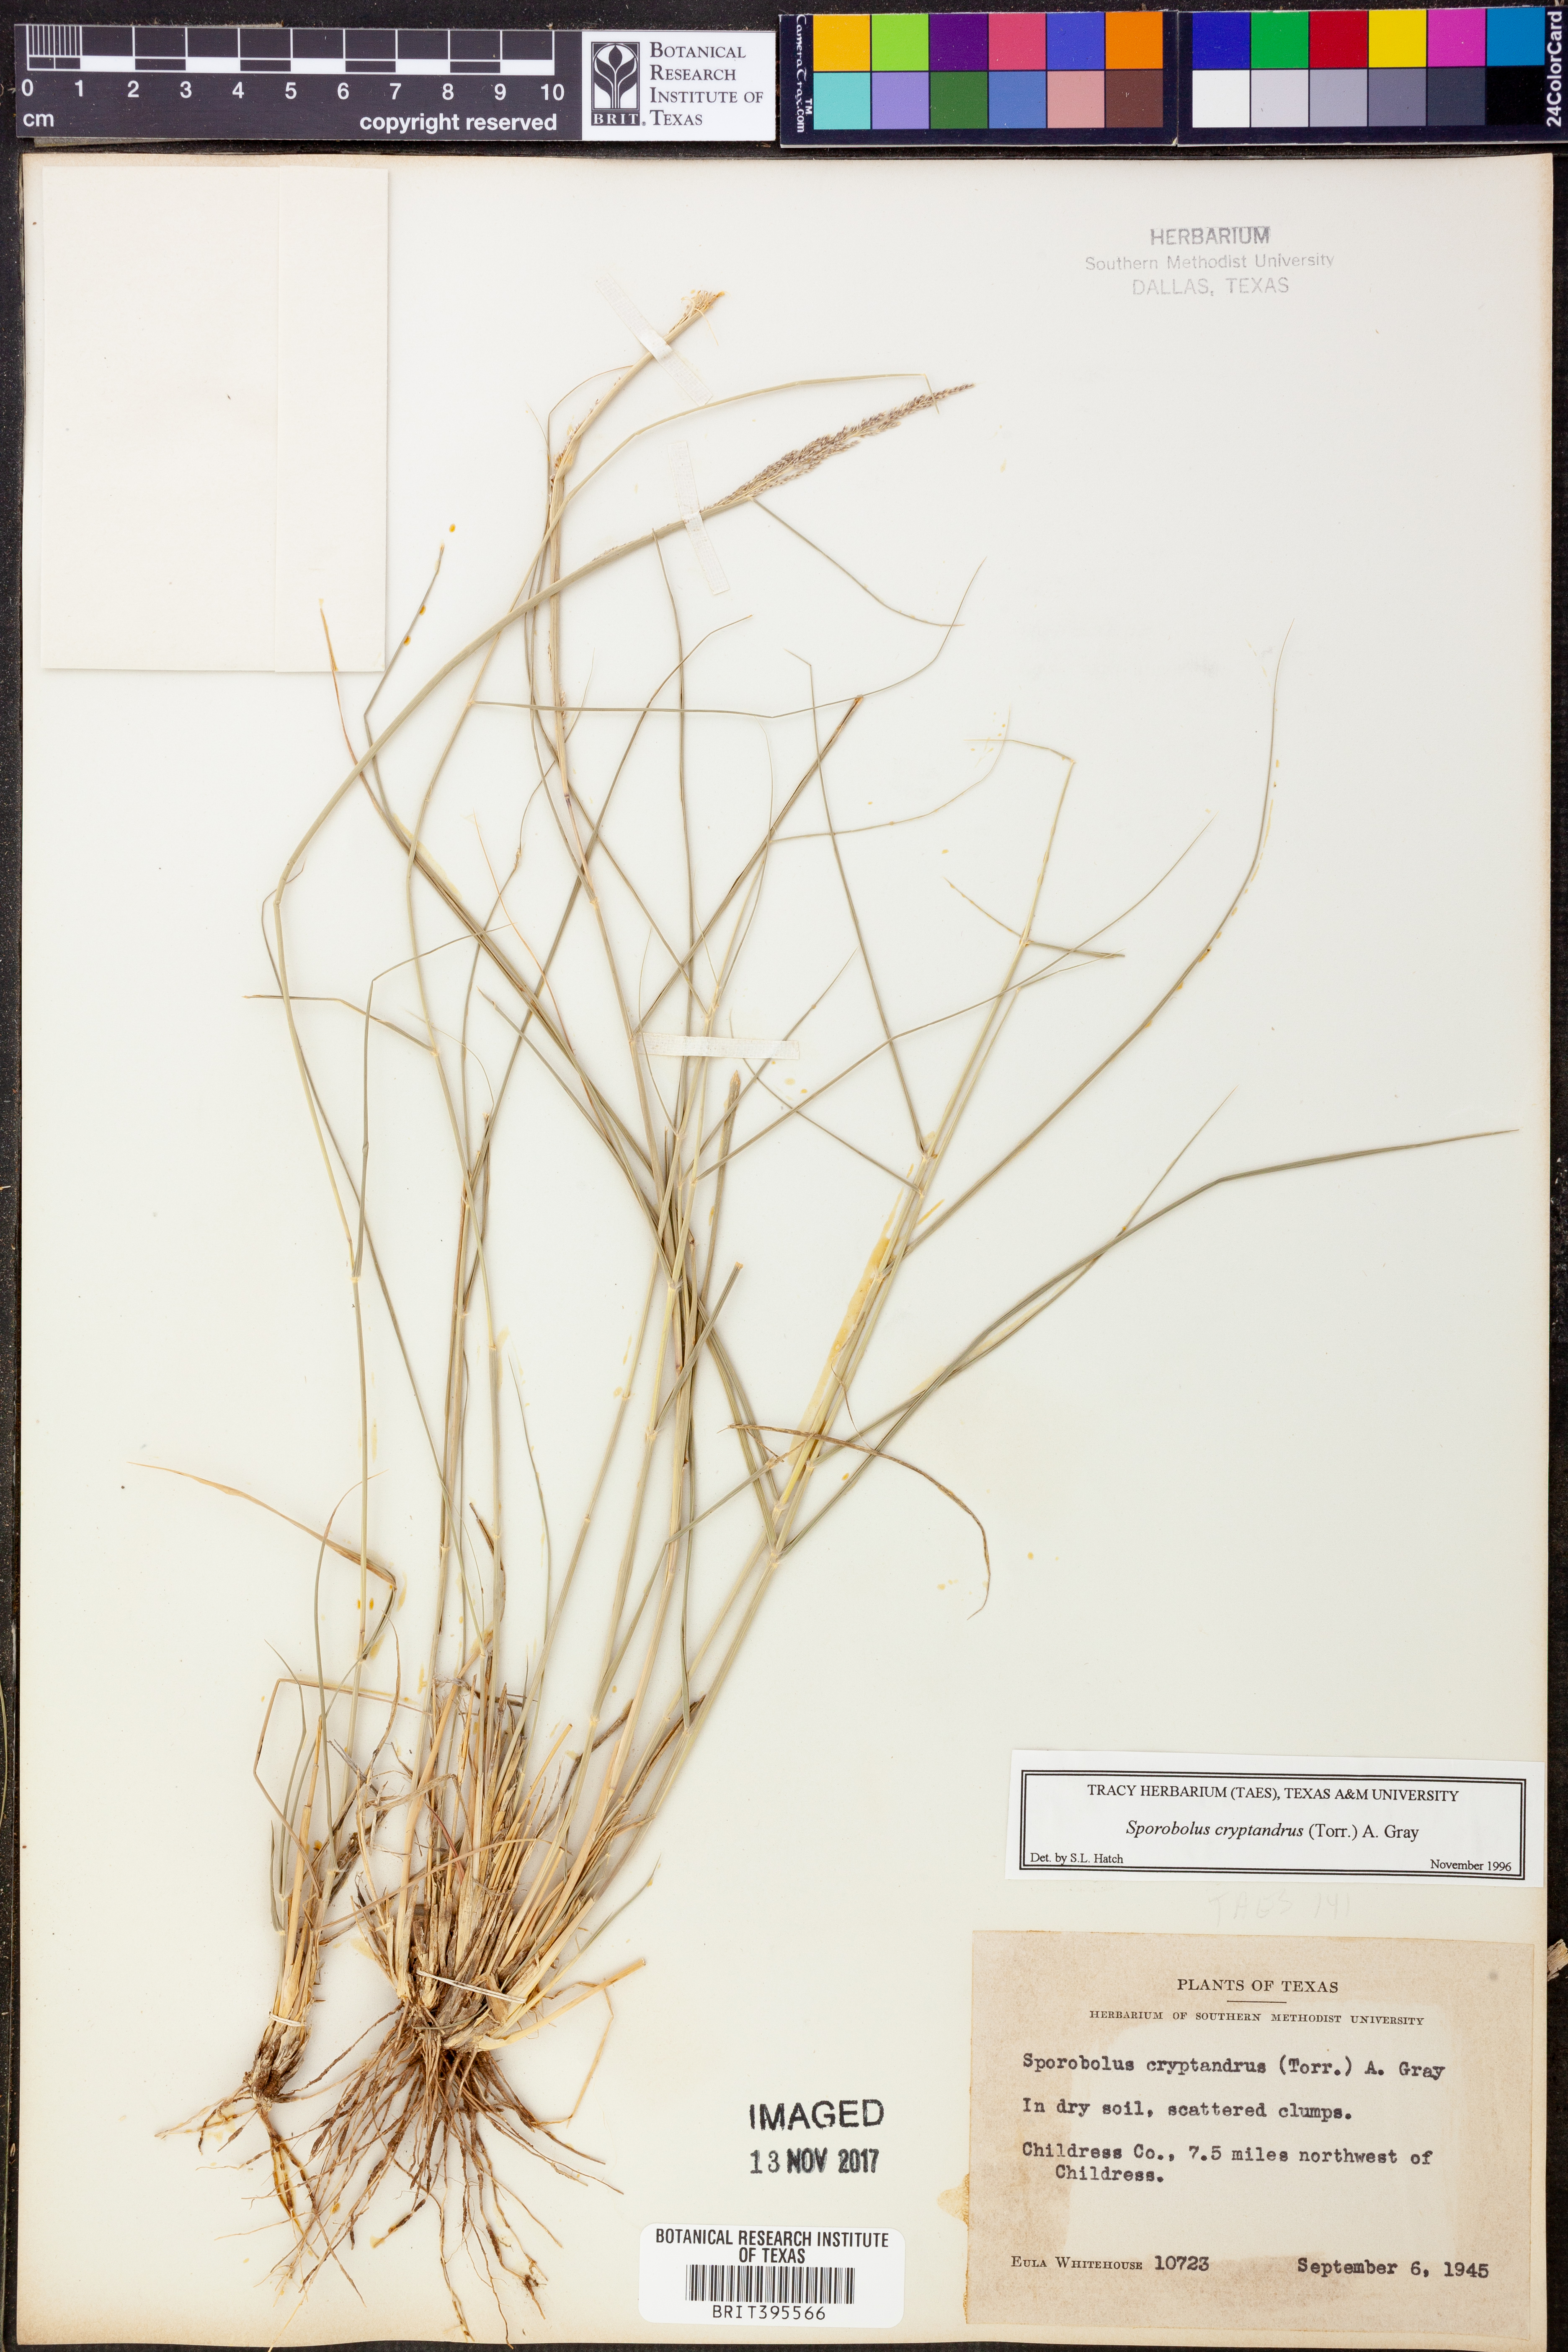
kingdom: Plantae
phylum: Tracheophyta
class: Liliopsida
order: Poales
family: Poaceae
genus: Sporobolus
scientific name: Sporobolus cryptandrus
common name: Sand dropseed
